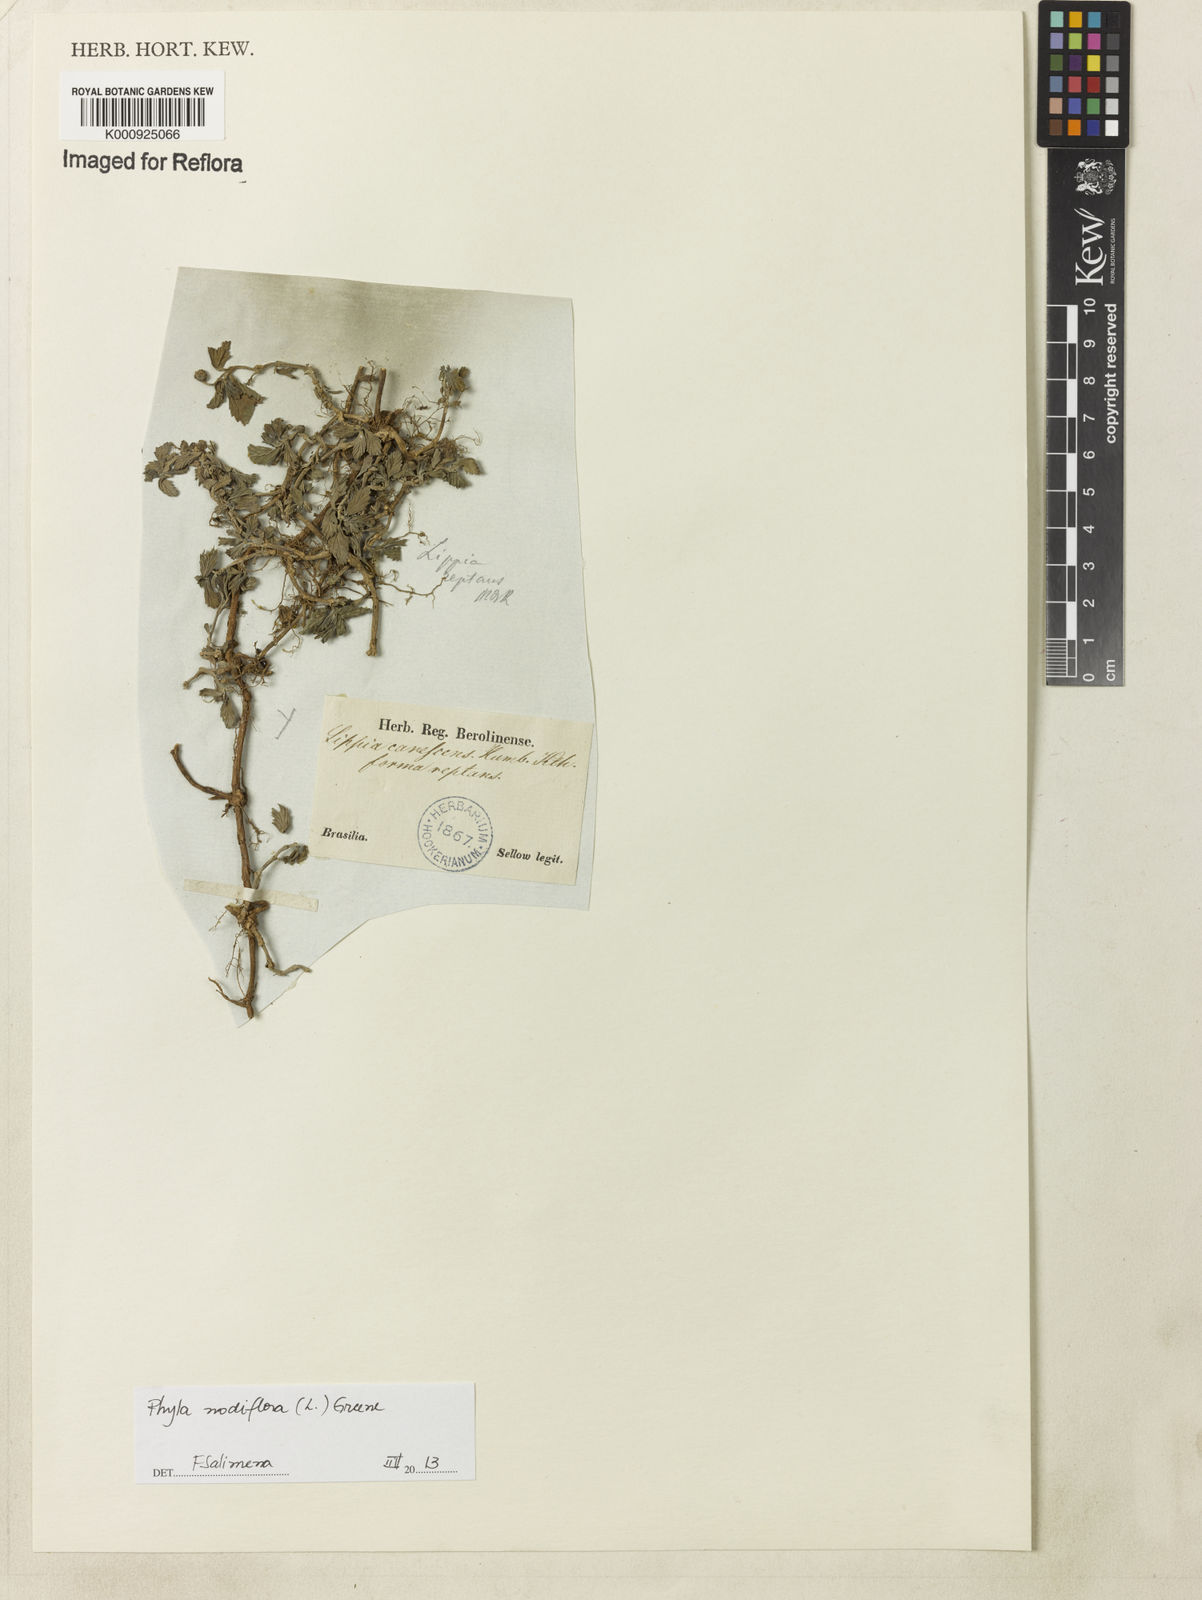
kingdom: Plantae
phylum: Tracheophyta
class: Magnoliopsida
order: Lamiales
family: Verbenaceae
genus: Lippia
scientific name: Lippia
